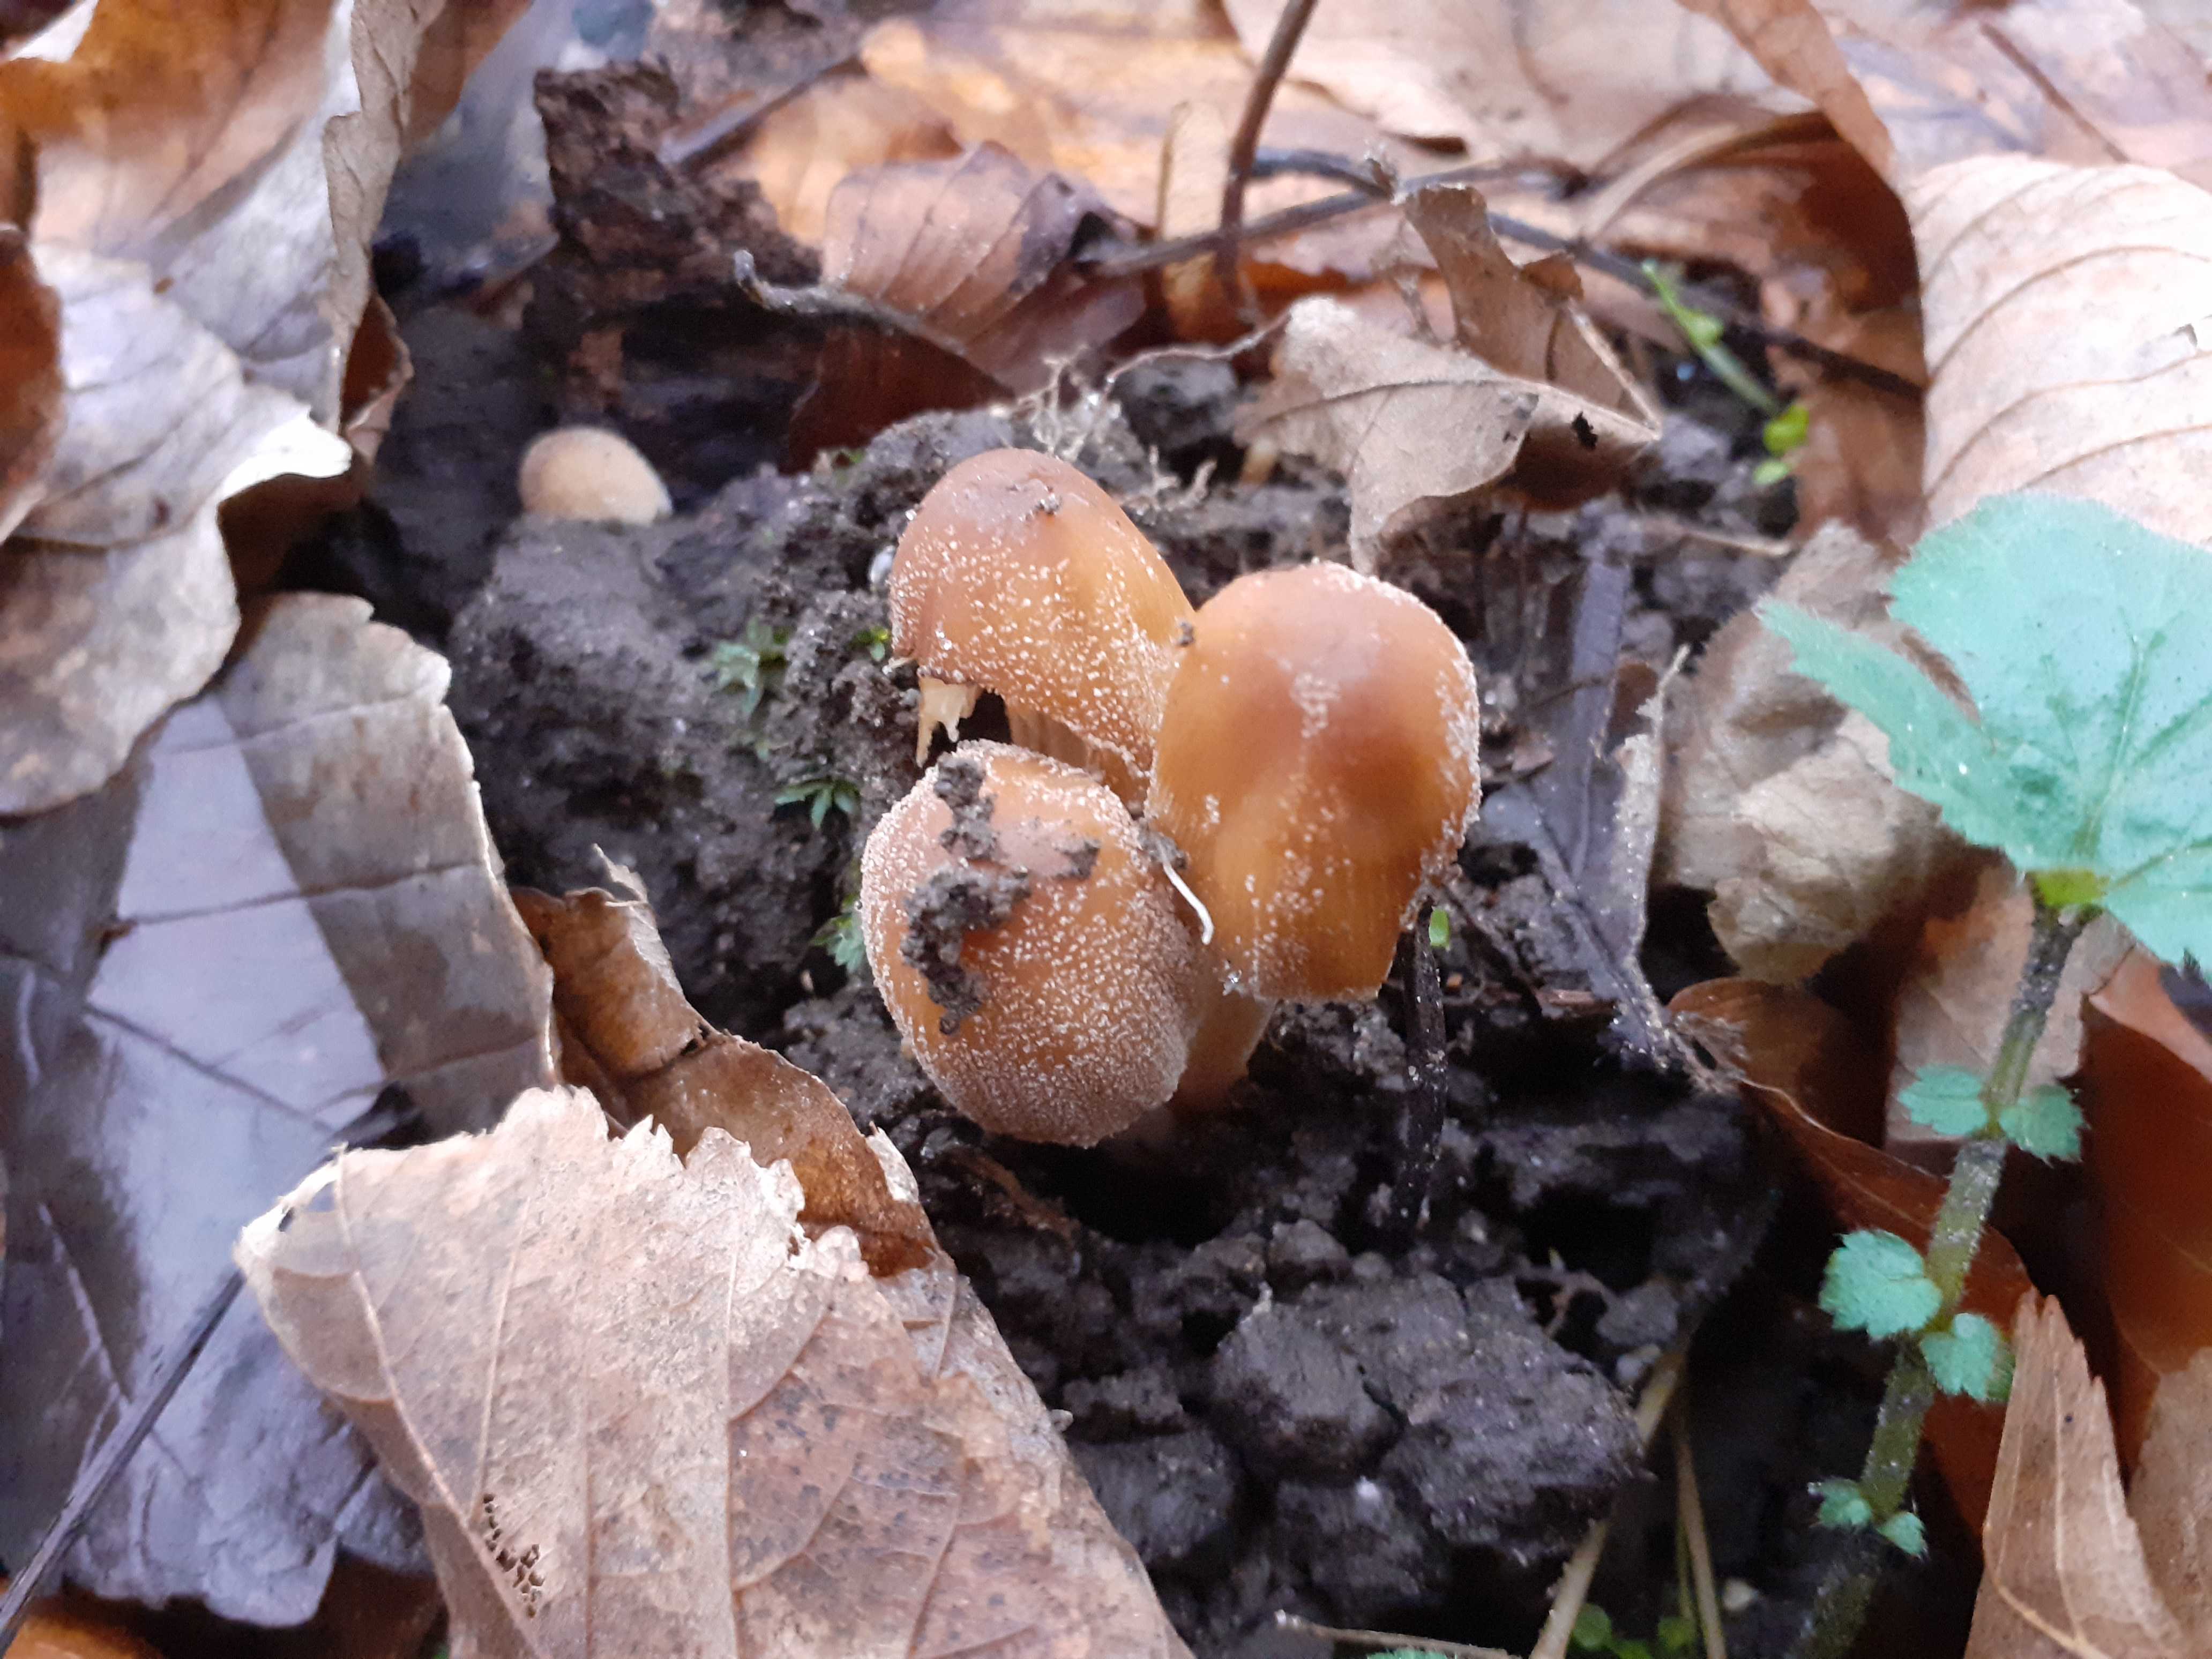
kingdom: Fungi
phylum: Basidiomycota
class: Agaricomycetes
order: Agaricales
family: Psathyrellaceae
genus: Coprinellus
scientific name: Coprinellus micaceus
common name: glimmer-blækhat
